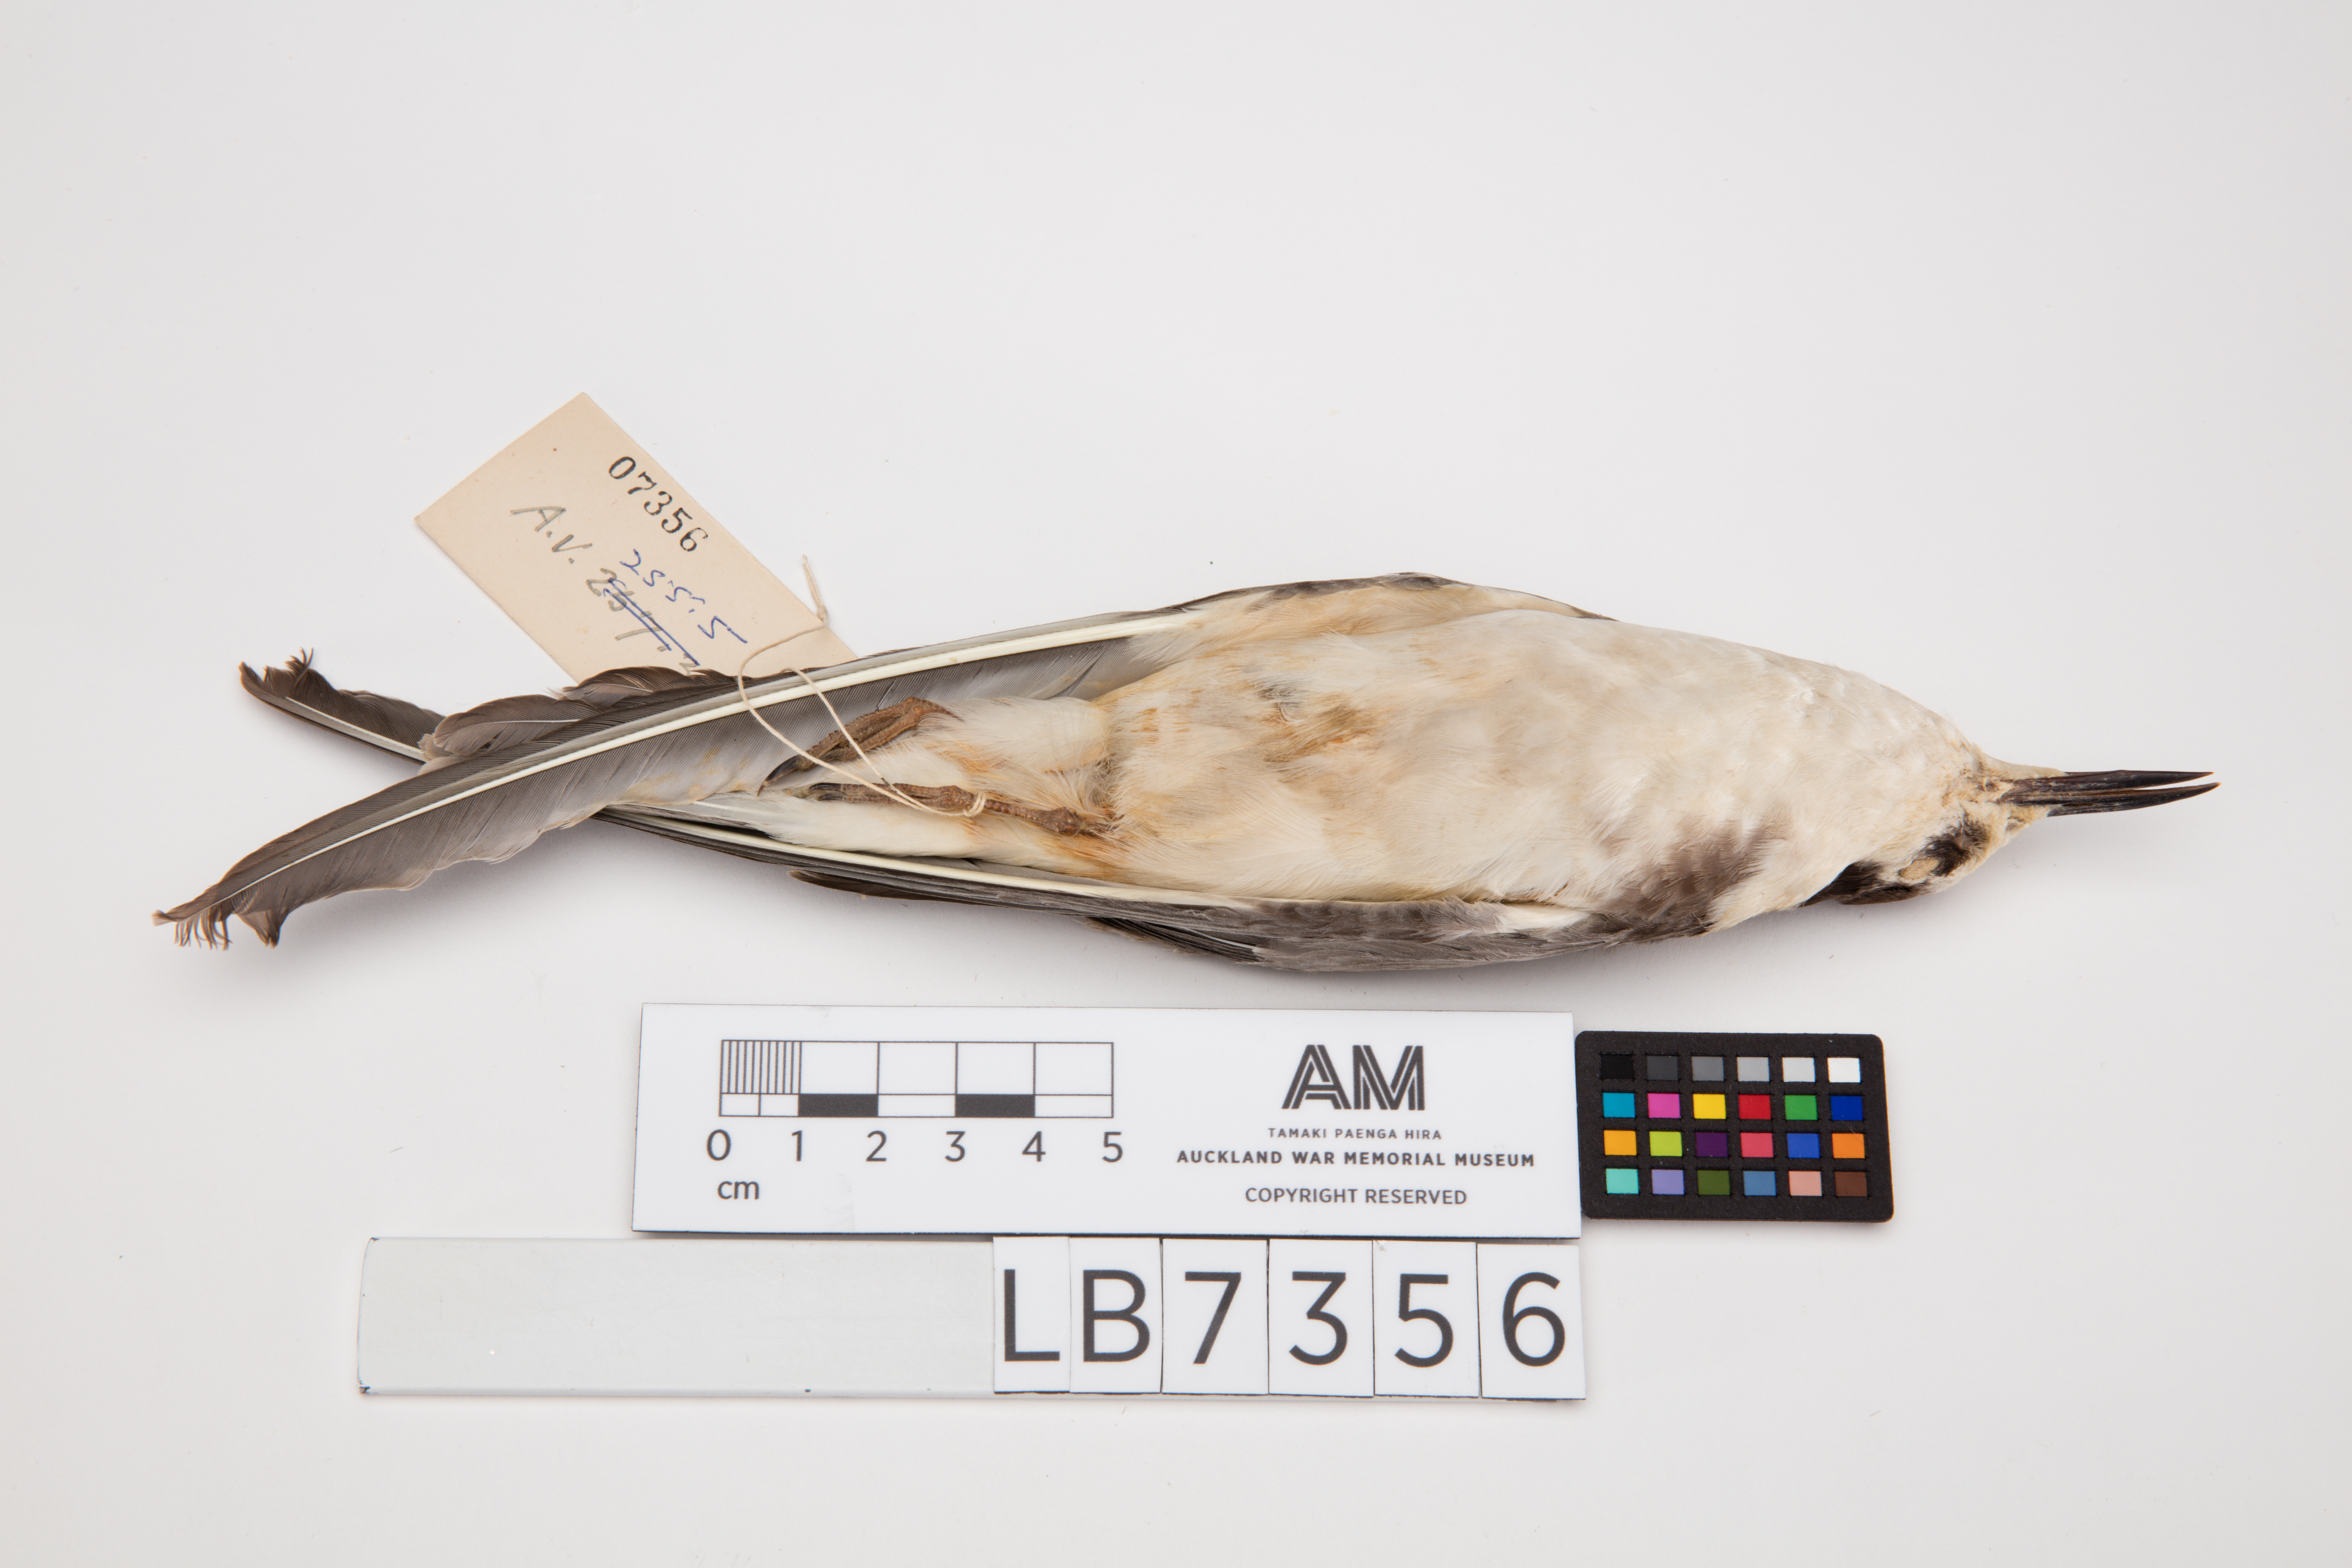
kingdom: Animalia
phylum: Chordata
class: Aves
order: Charadriiformes
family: Laridae
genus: Chlidonias
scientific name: Chlidonias niger
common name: Black tern
